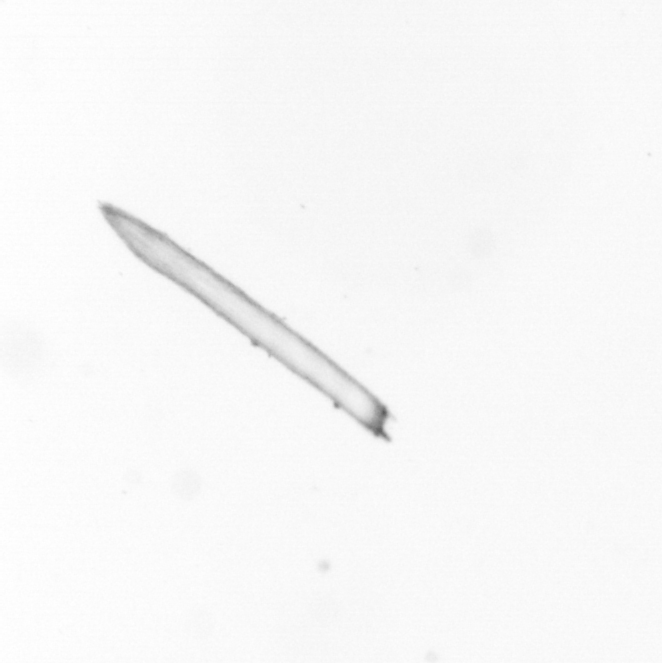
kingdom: Chromista
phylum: Ochrophyta
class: Bacillariophyceae
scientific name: Bacillariophyceae
